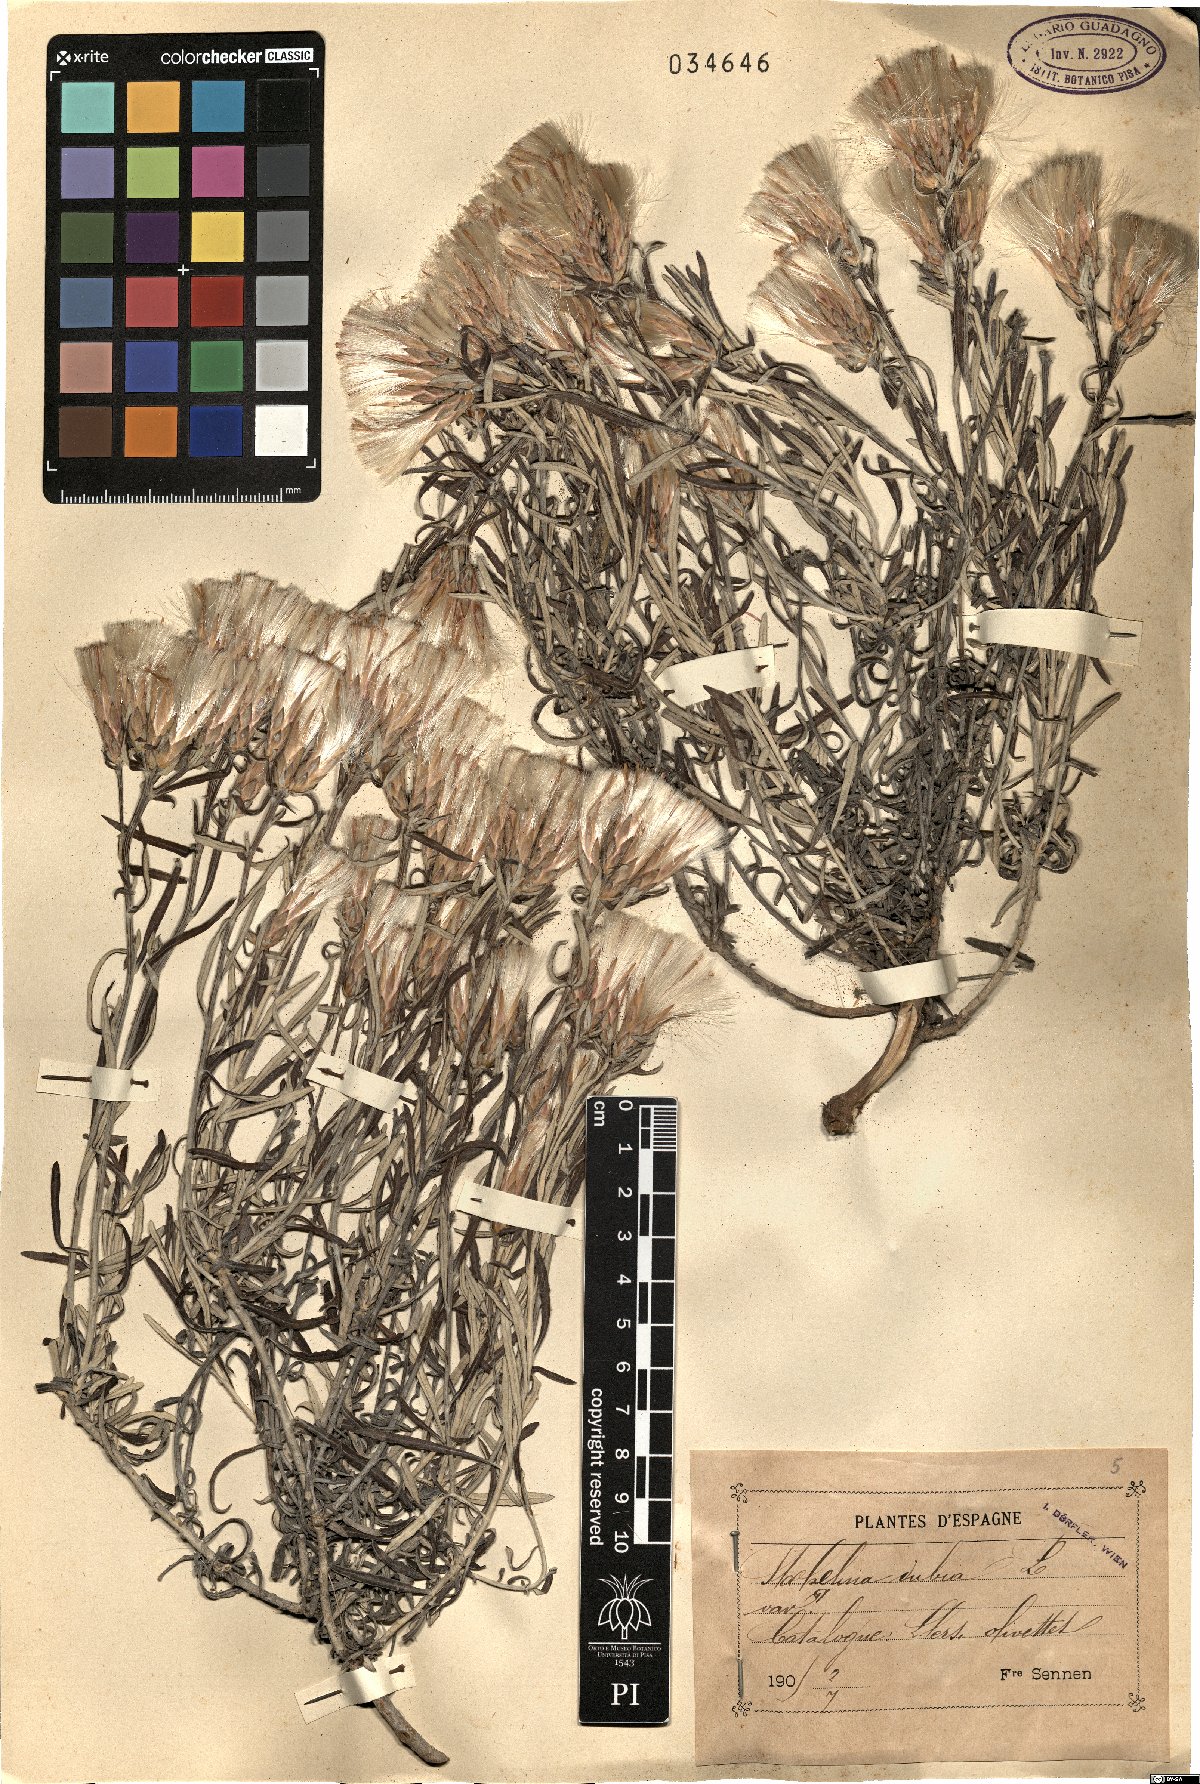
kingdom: Plantae
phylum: Tracheophyta
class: Magnoliopsida
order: Asterales
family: Asteraceae
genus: Staehelina
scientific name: Staehelina dubia
